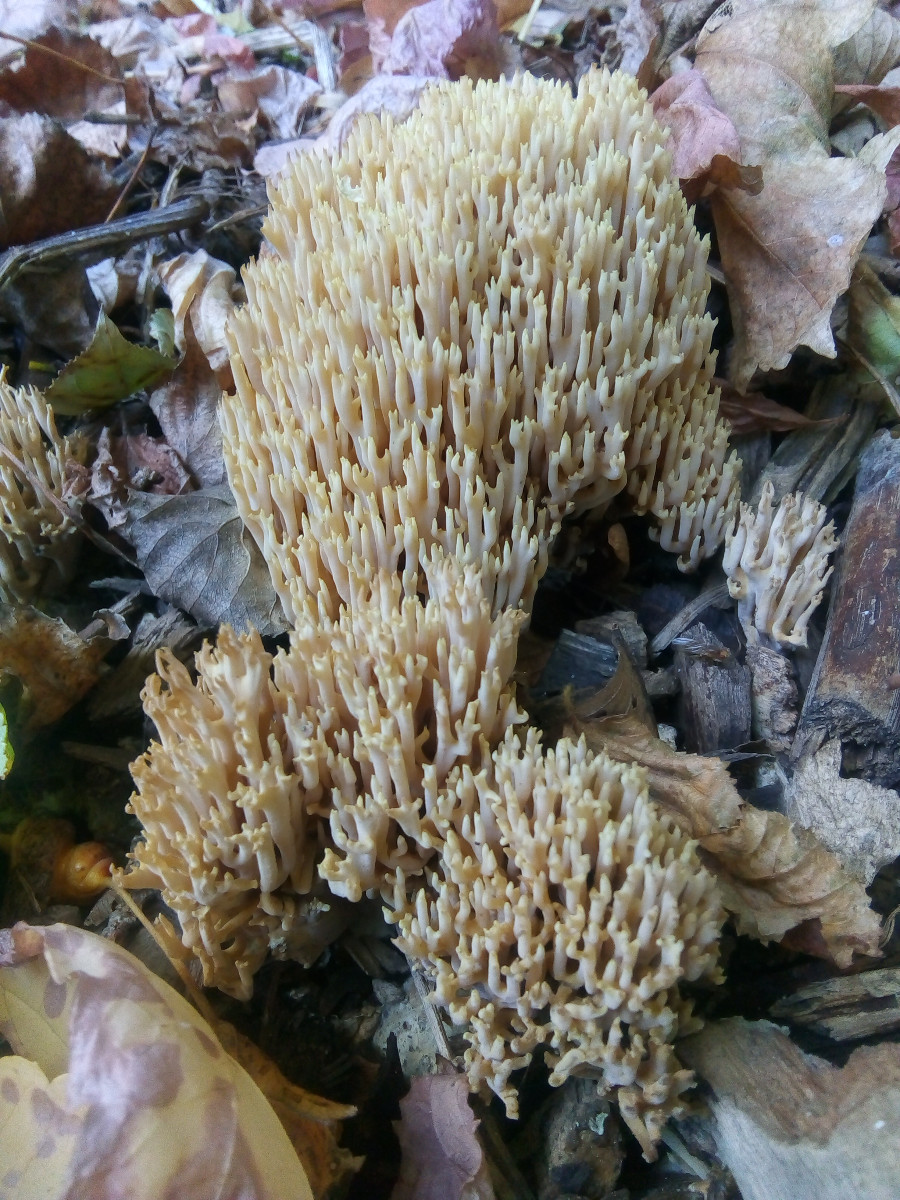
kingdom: Fungi
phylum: Basidiomycota
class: Agaricomycetes
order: Gomphales
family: Gomphaceae
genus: Ramaria
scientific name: Ramaria stricta
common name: rank koralsvamp
